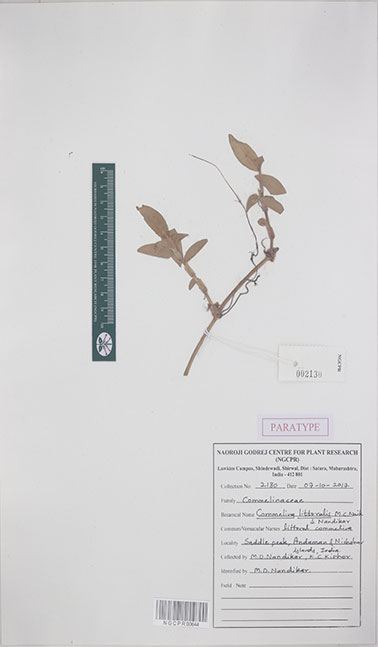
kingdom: Plantae
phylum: Tracheophyta
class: Liliopsida
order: Commelinales
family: Commelinaceae
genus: Commelina
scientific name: Commelina littoralis
